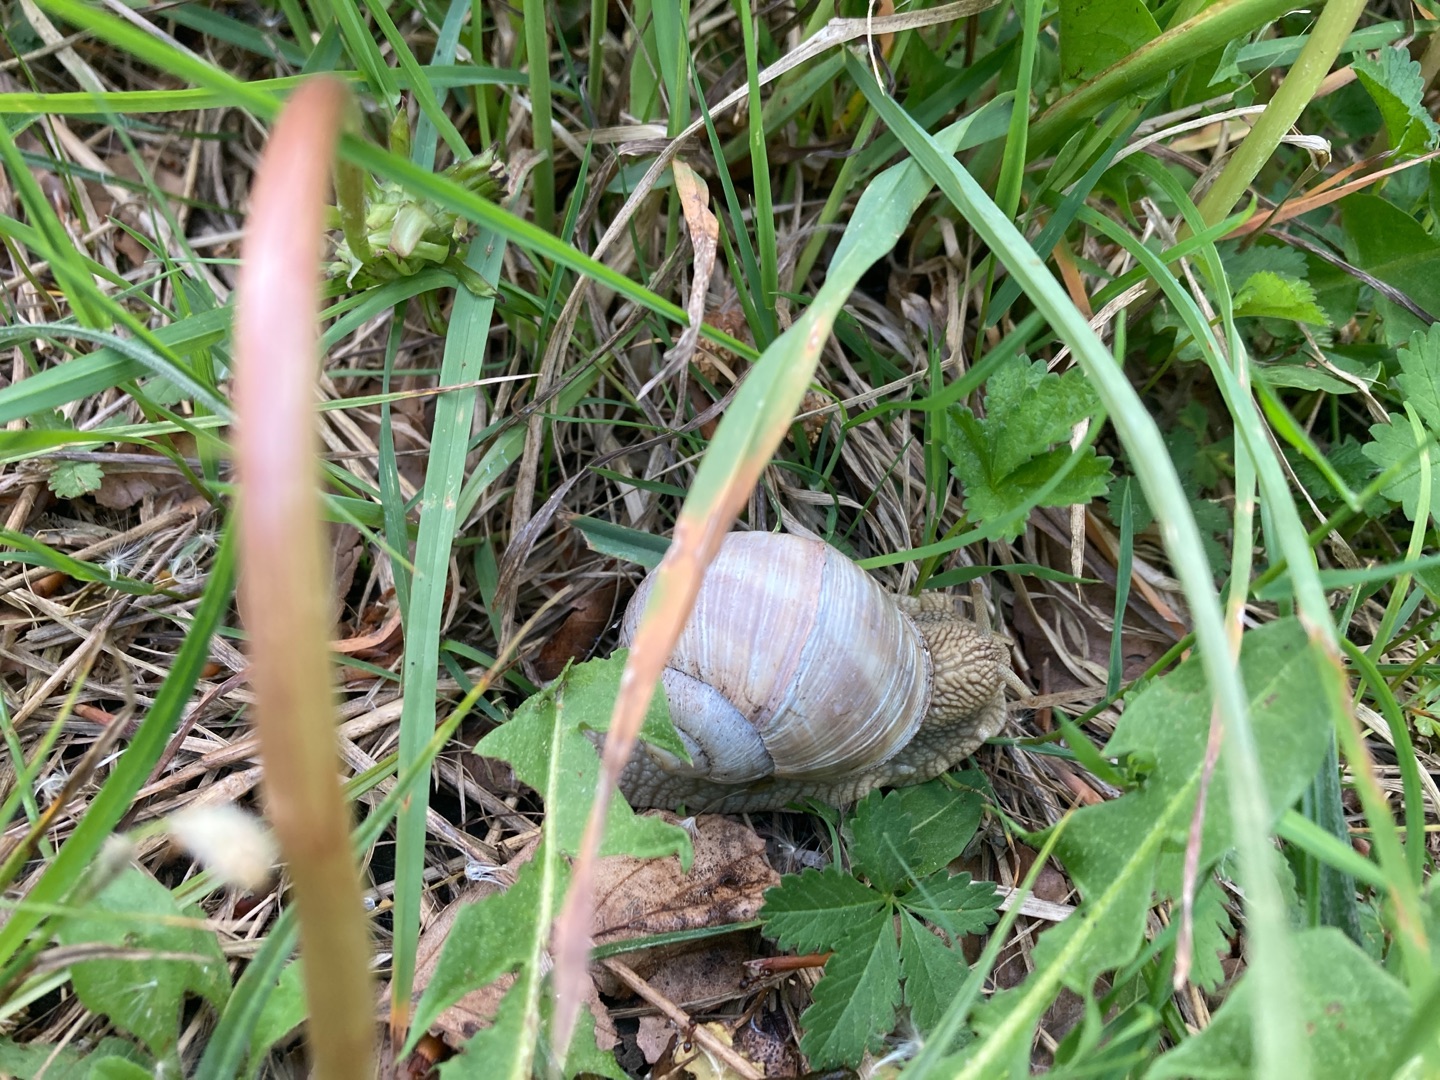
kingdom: Animalia
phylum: Mollusca
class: Gastropoda
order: Stylommatophora
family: Helicidae
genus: Helix
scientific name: Helix pomatia
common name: Vinbjergsnegl
